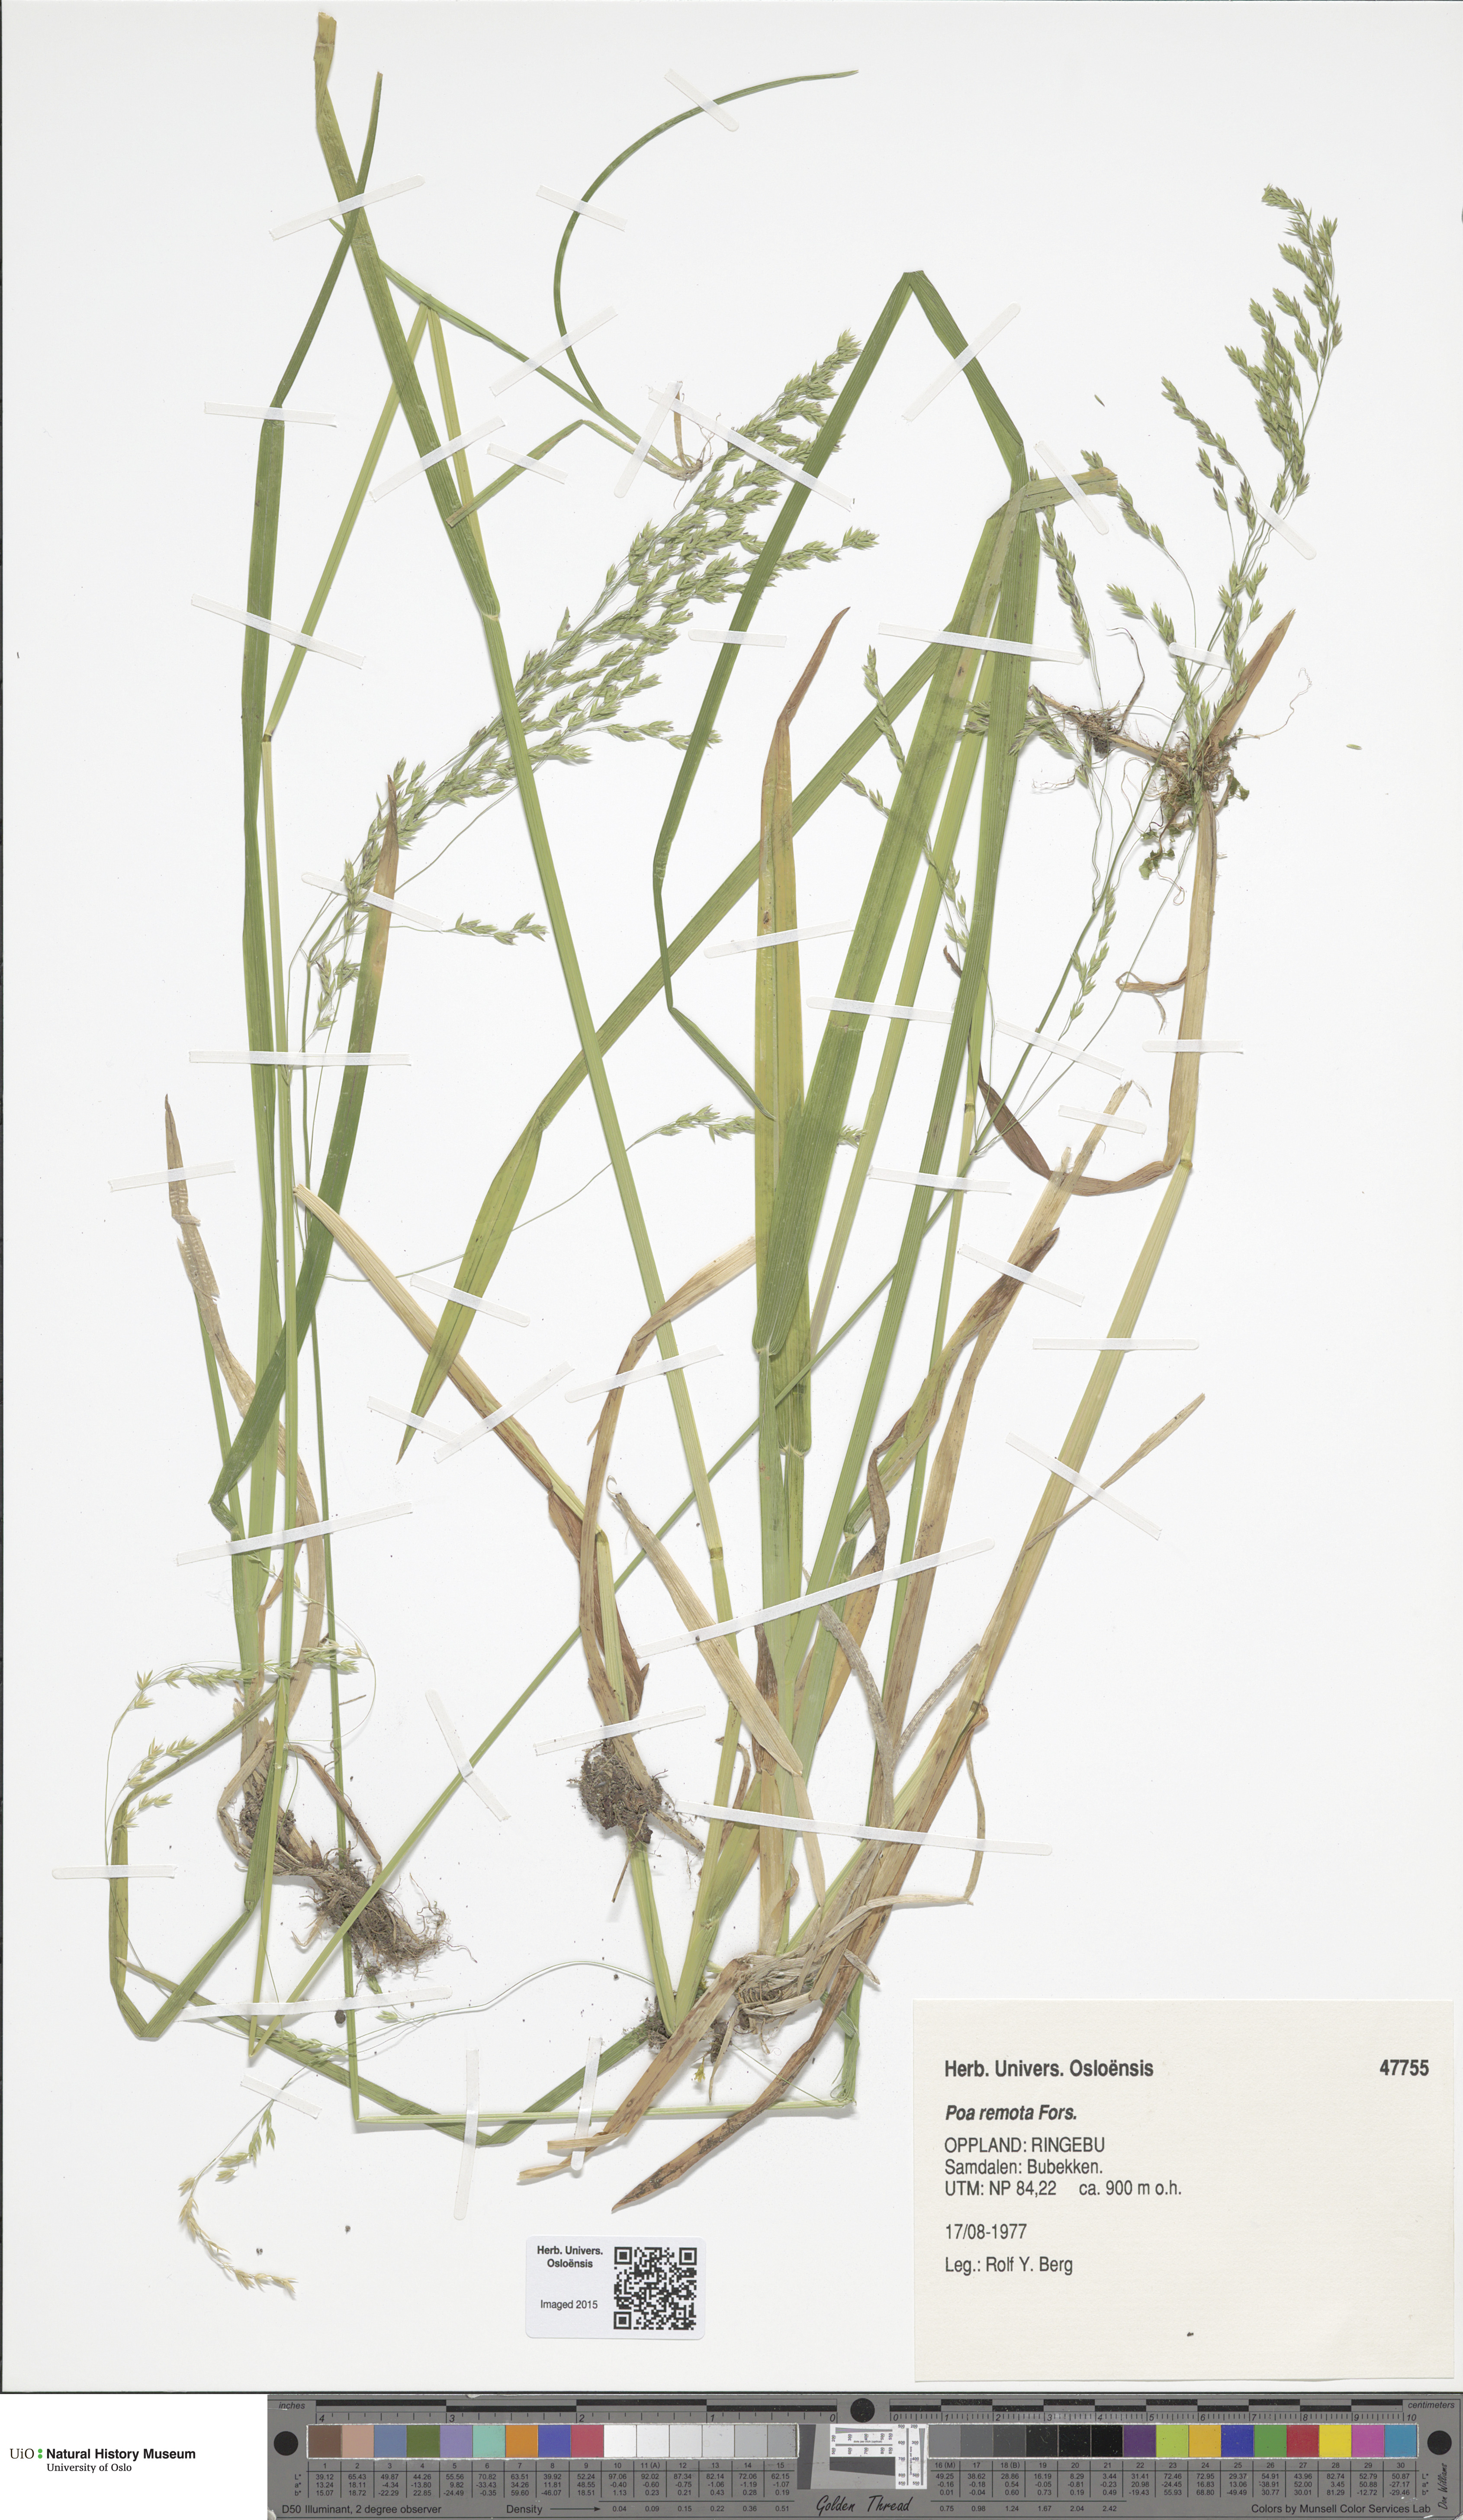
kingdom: Plantae
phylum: Tracheophyta
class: Liliopsida
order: Poales
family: Poaceae
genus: Poa
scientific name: Poa remota
